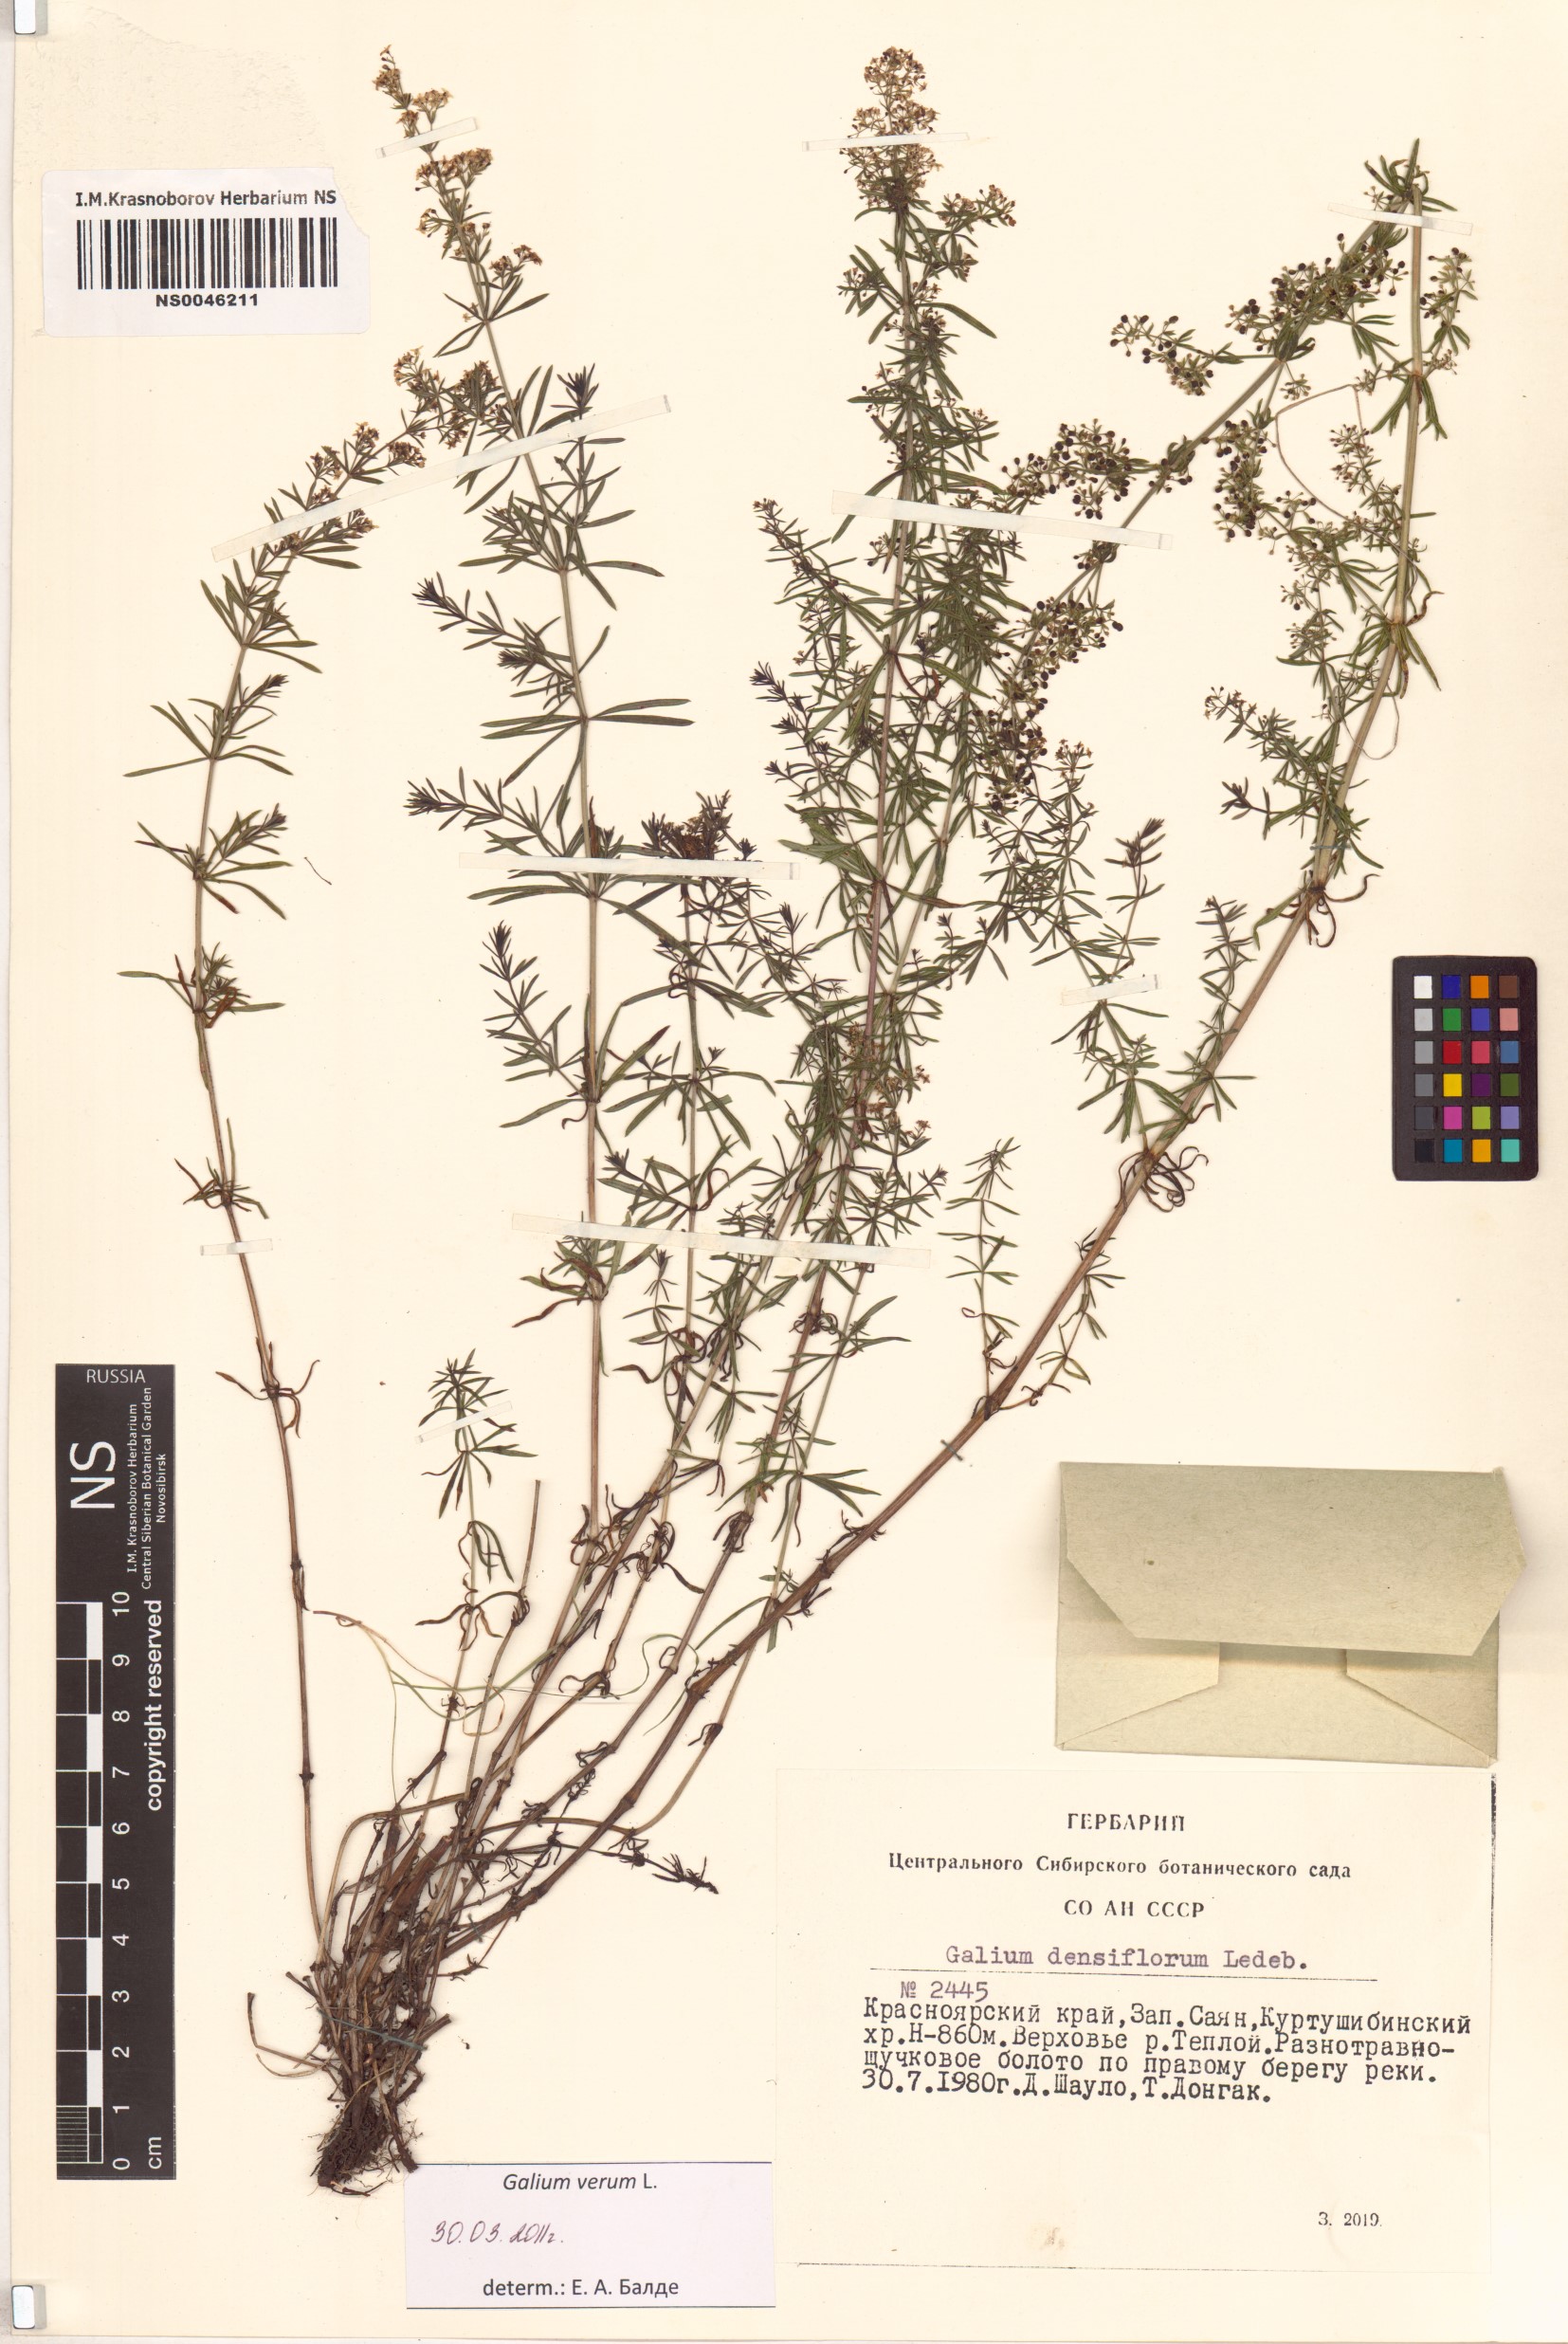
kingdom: Plantae
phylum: Tracheophyta
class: Magnoliopsida
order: Gentianales
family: Rubiaceae
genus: Galium
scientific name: Galium verum
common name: Lady's bedstraw
